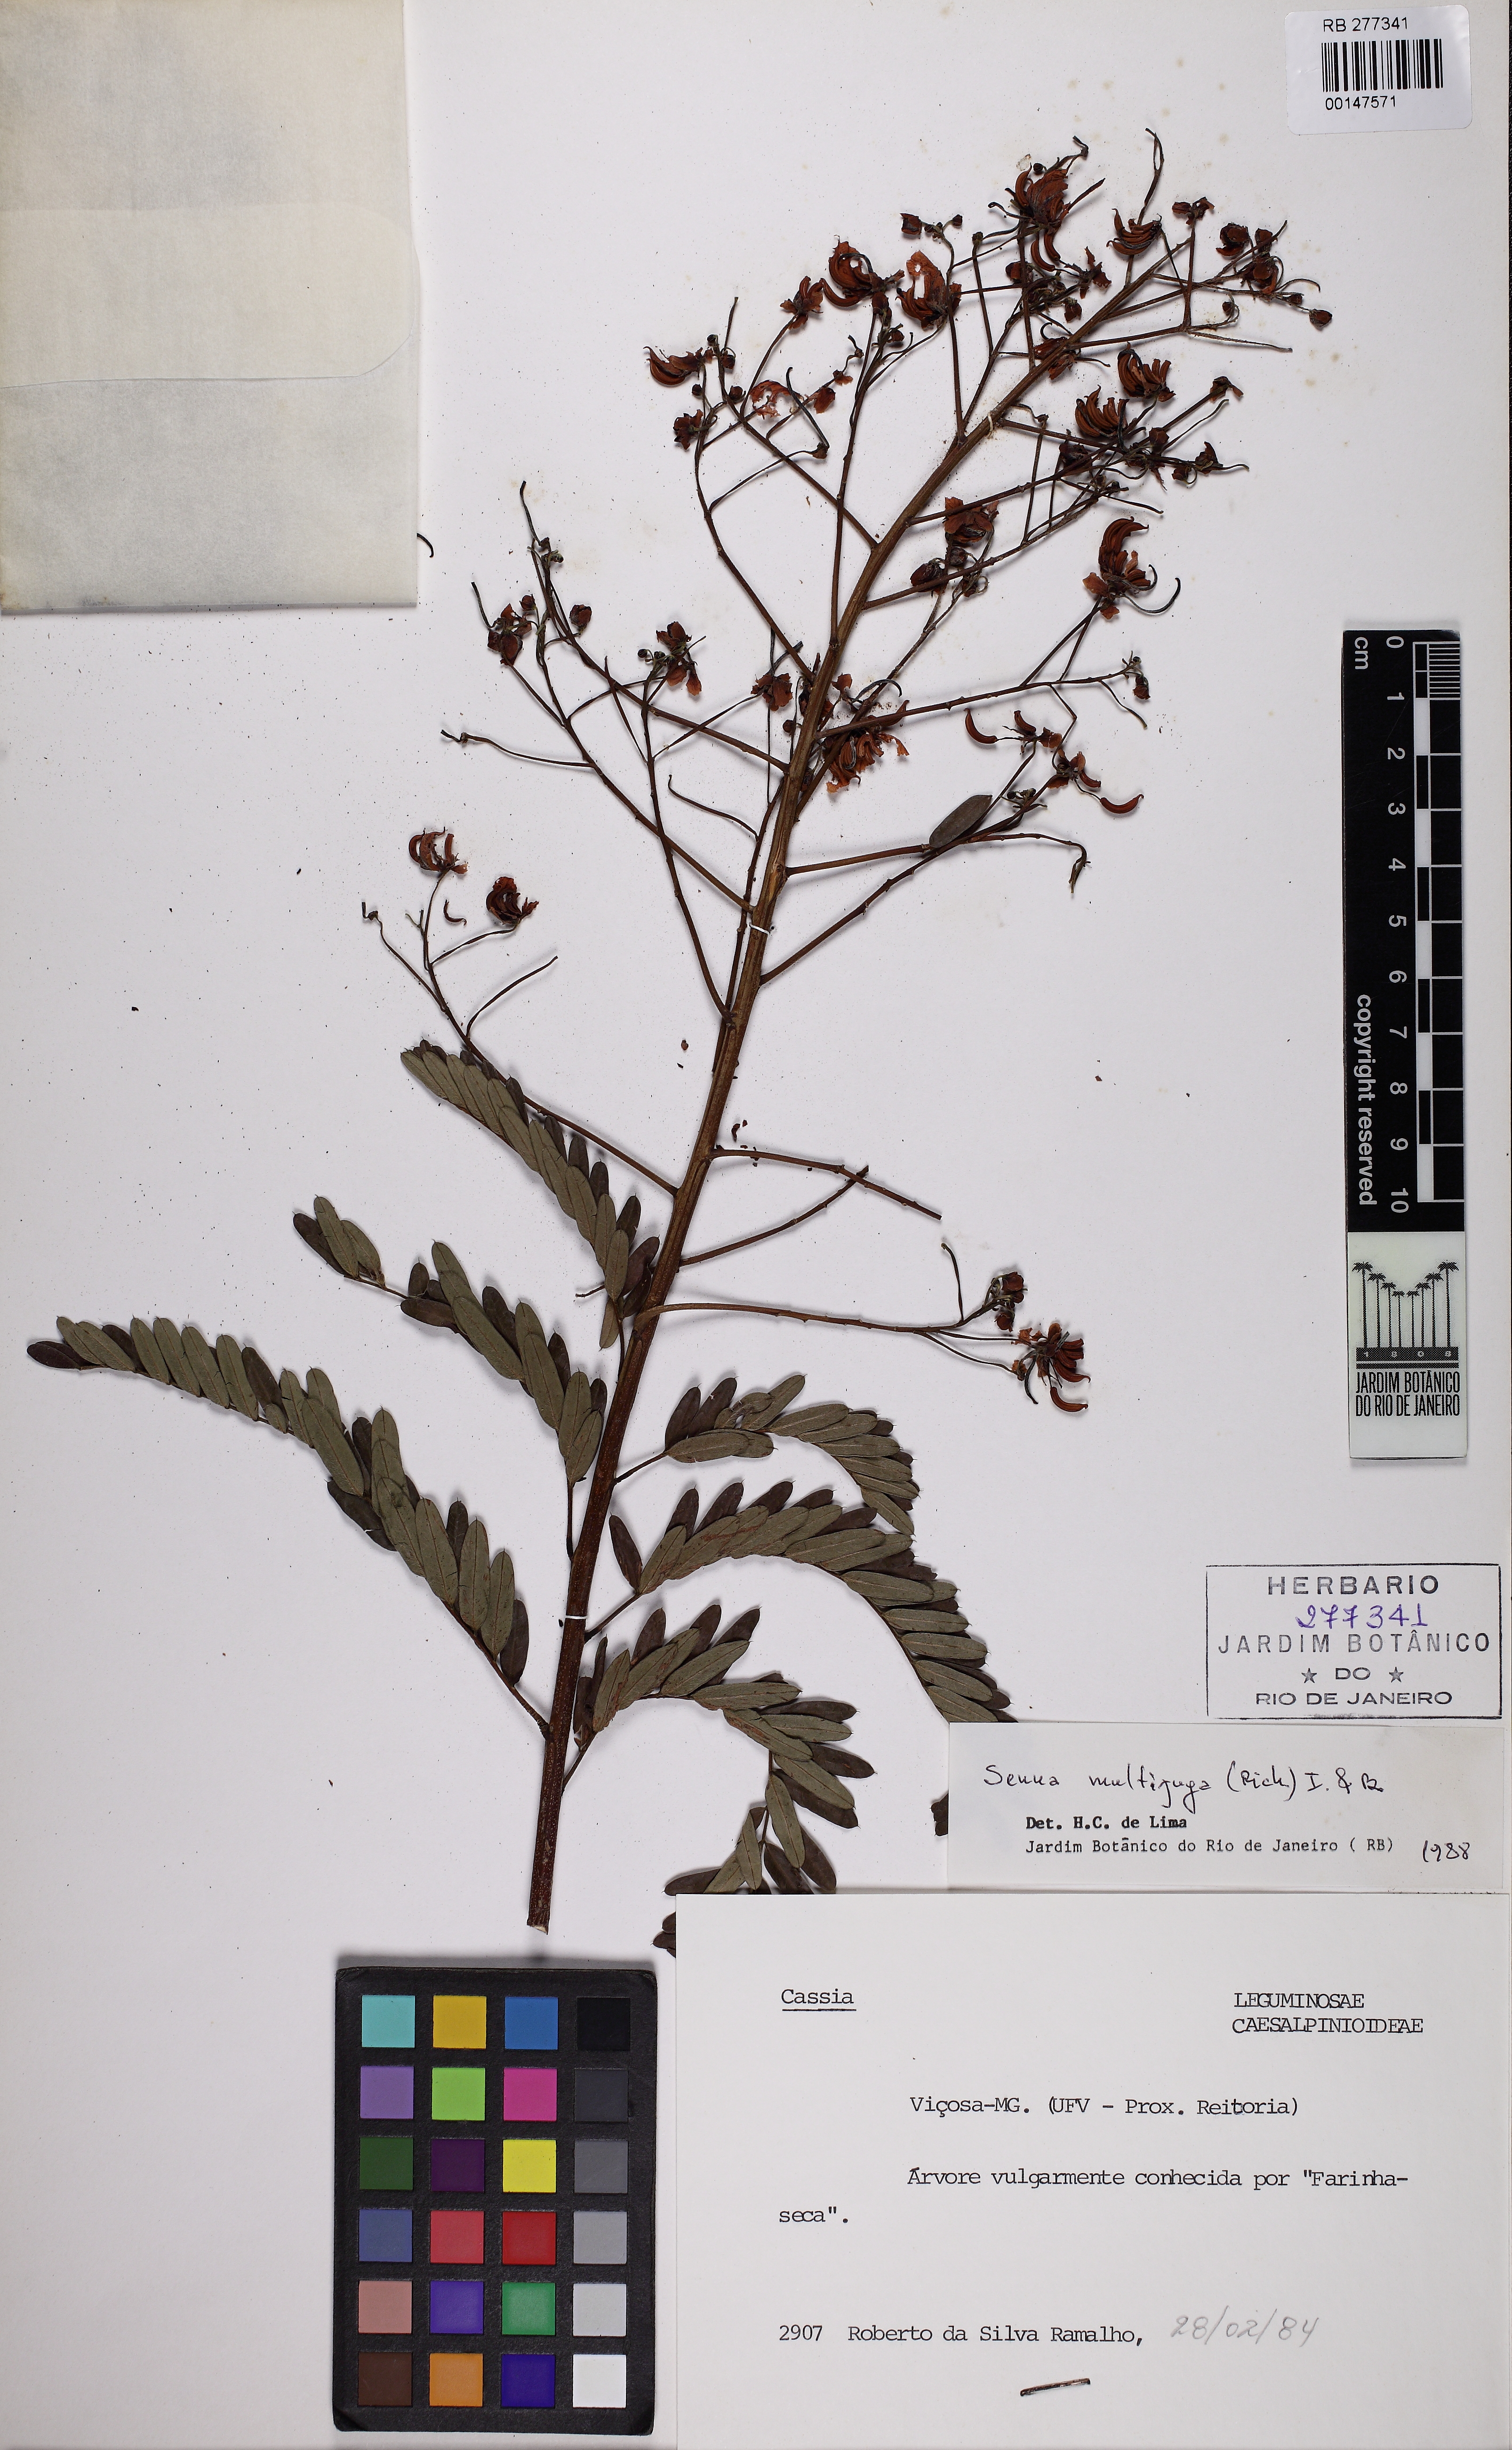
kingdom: Plantae
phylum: Tracheophyta
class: Magnoliopsida
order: Fabales
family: Fabaceae
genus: Senna
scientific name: Senna multijuga
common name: False sicklepod
